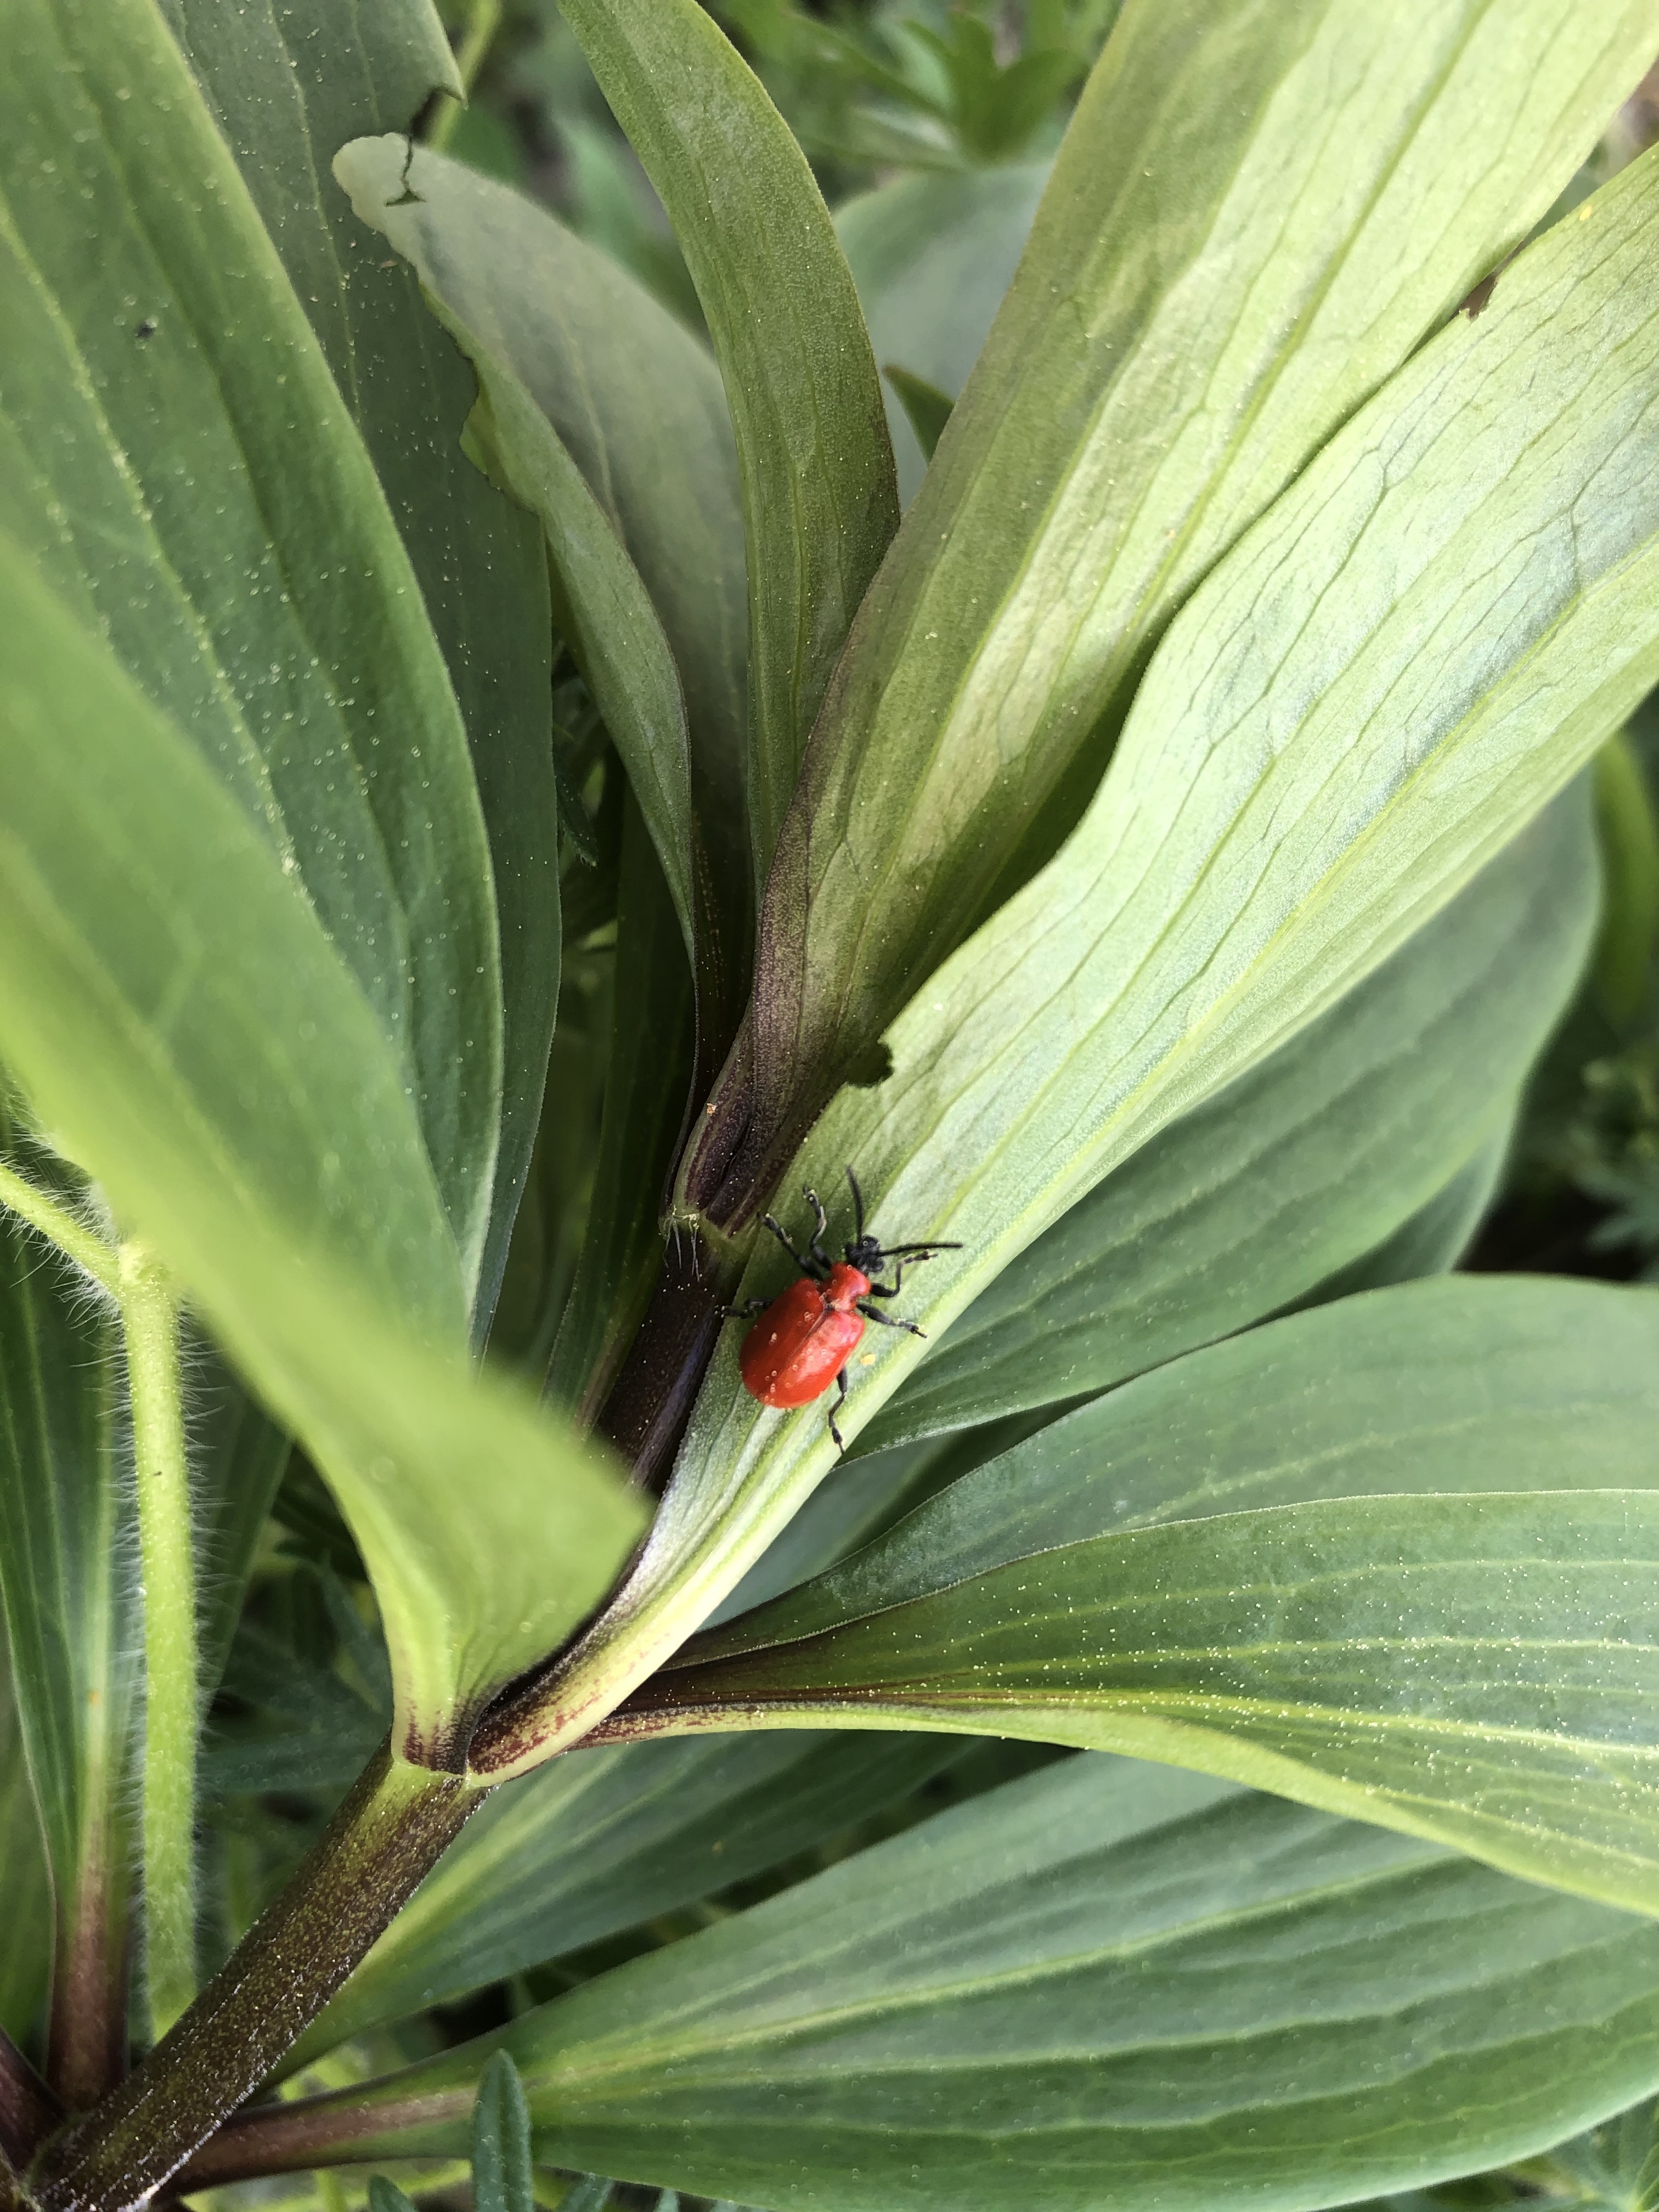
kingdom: Animalia
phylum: Arthropoda
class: Insecta
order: Coleoptera
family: Chrysomelidae
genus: Lilioceris
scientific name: Lilioceris lilii
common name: Lily beetle
